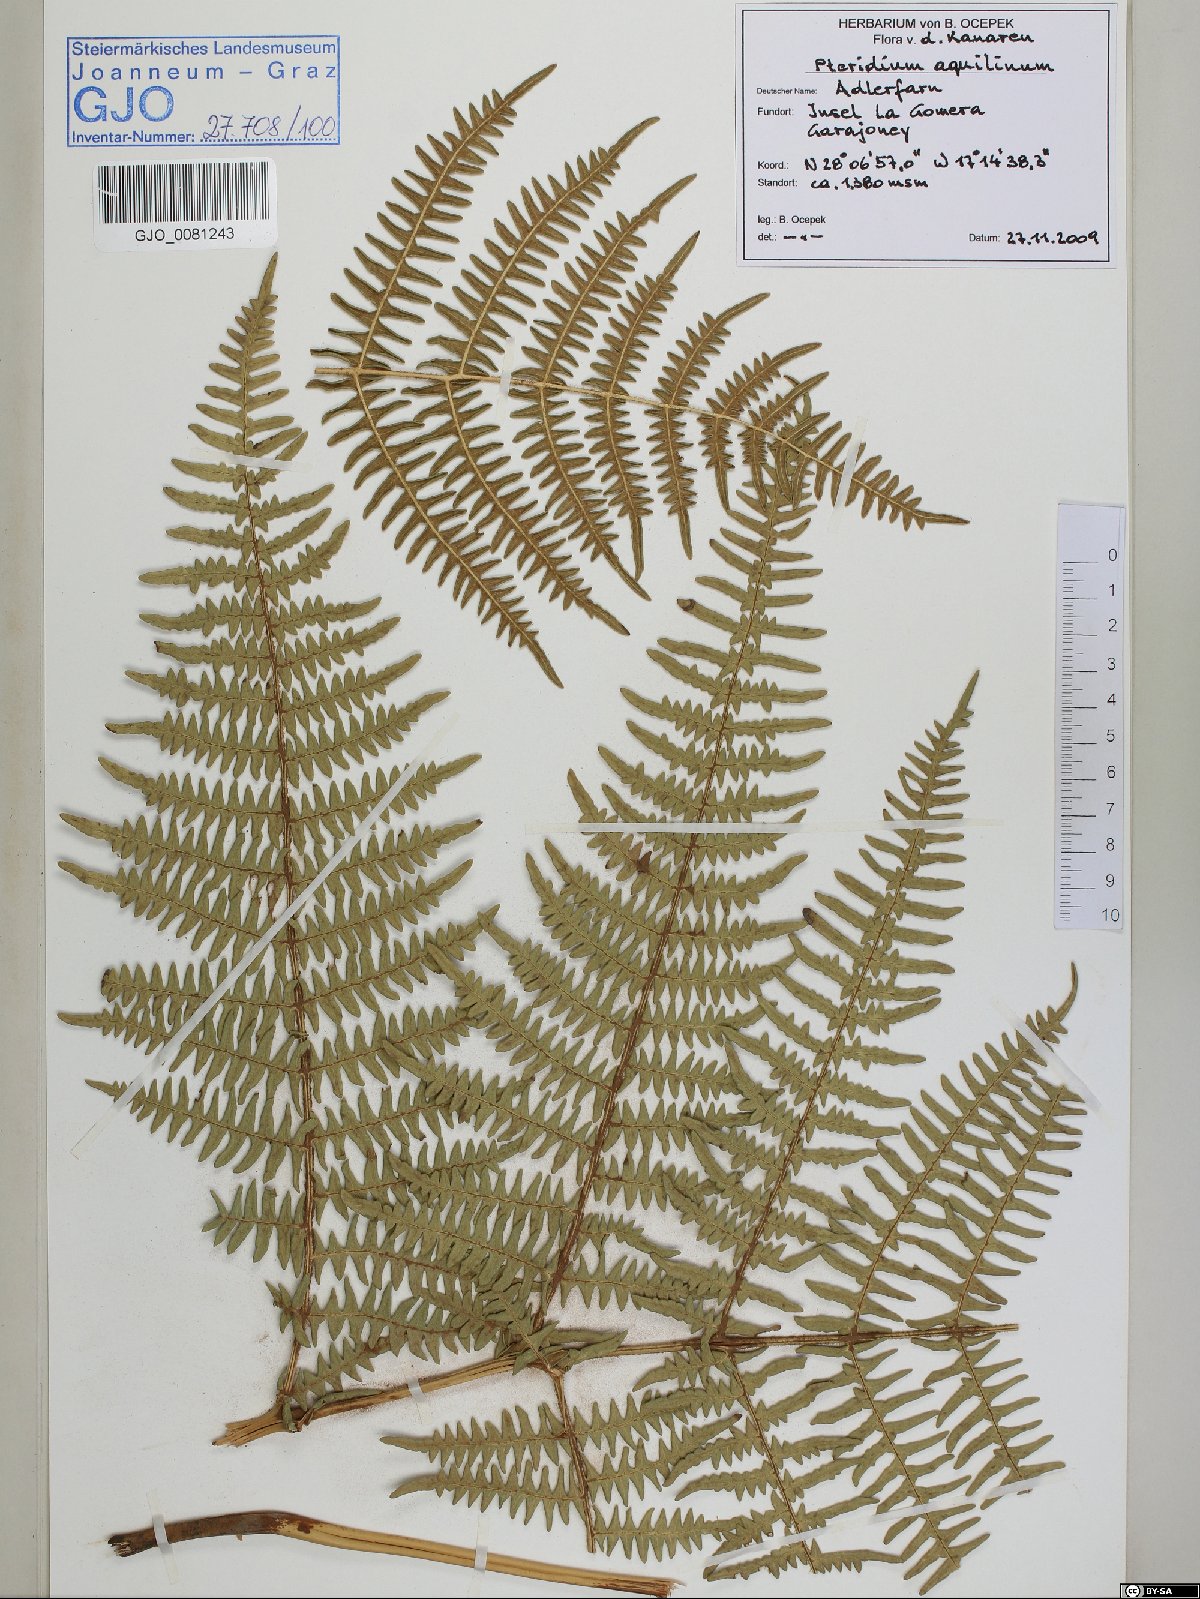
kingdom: Plantae
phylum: Tracheophyta
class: Polypodiopsida
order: Polypodiales
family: Dennstaedtiaceae
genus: Pteridium
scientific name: Pteridium aquilinum
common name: Bracken
